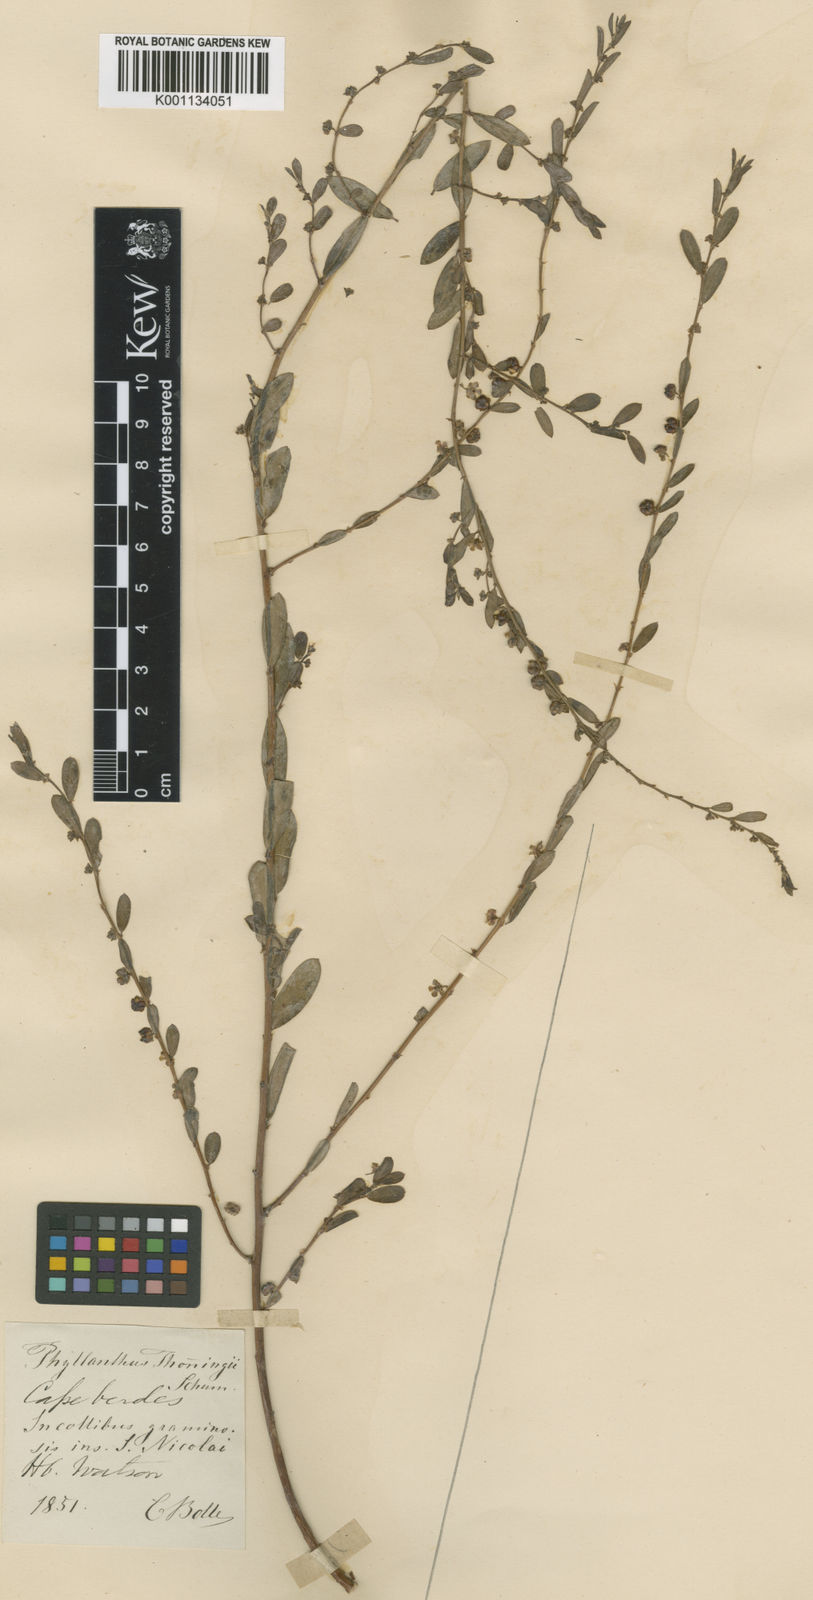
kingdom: Plantae
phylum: Tracheophyta
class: Magnoliopsida
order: Malpighiales
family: Phyllanthaceae
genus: Phyllanthus
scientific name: Phyllanthus maderaspatensis
